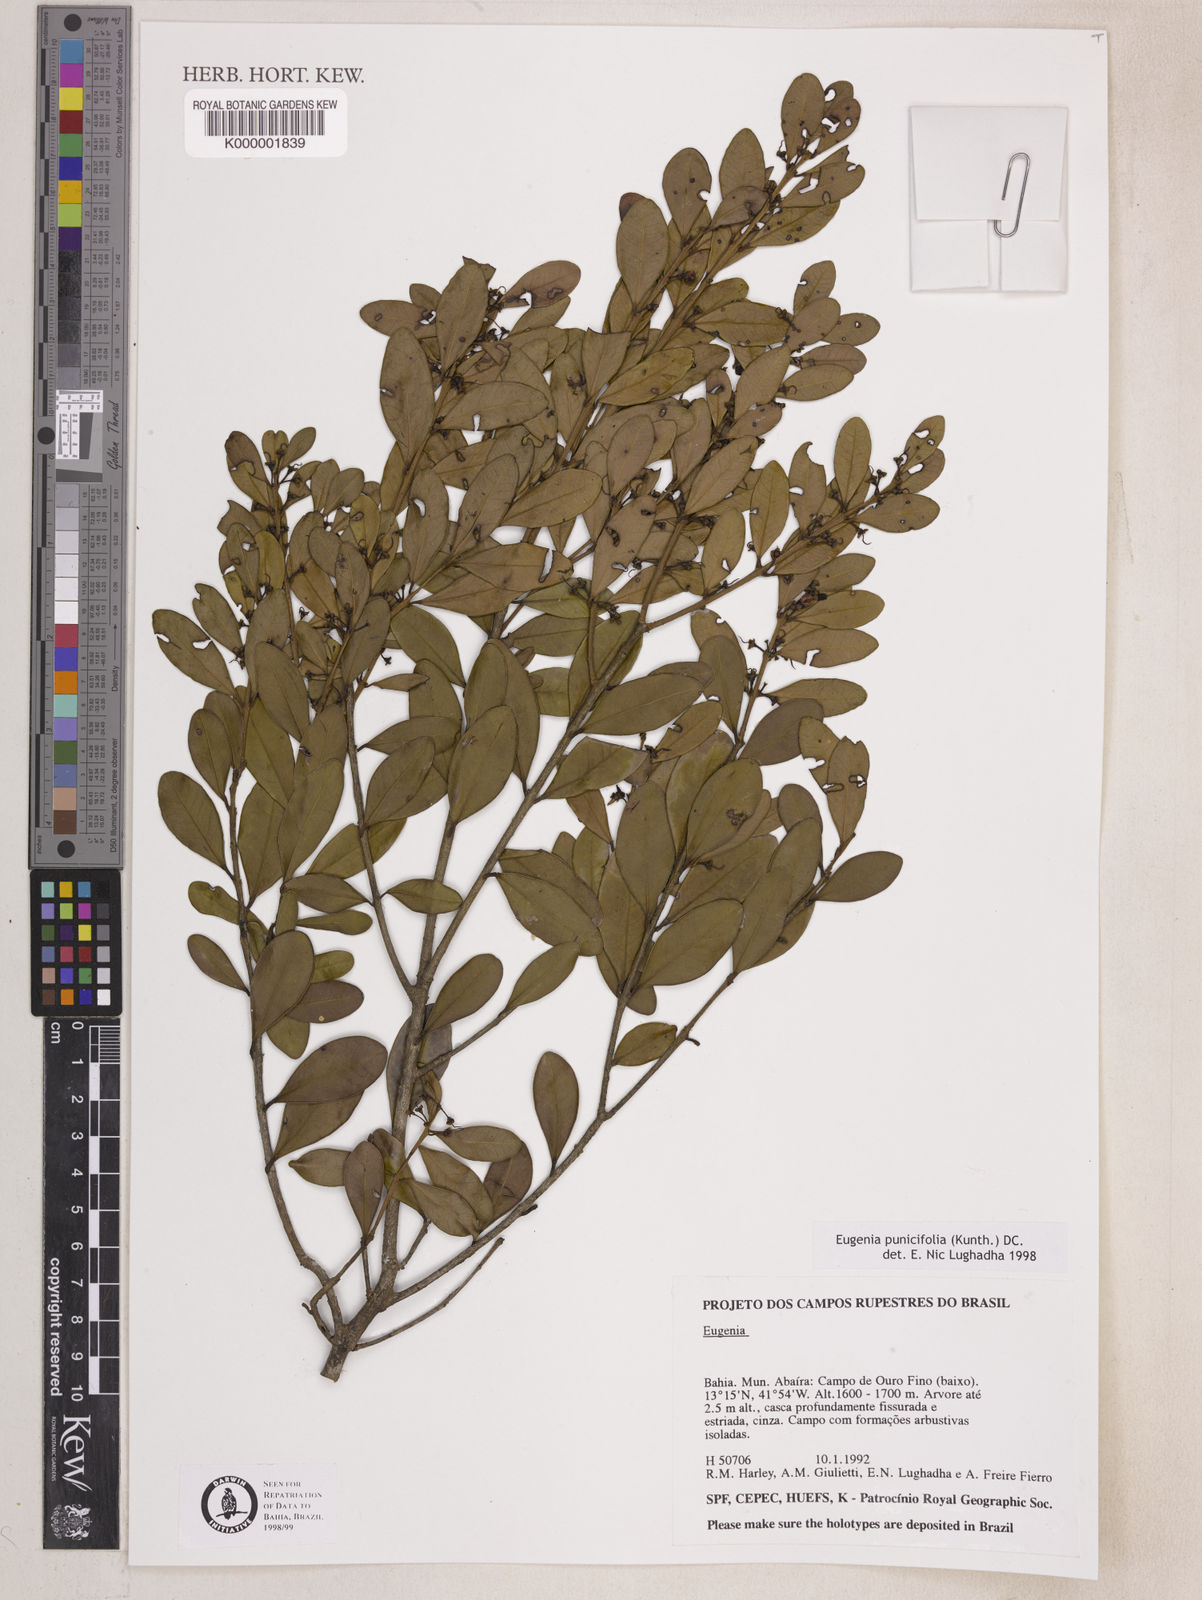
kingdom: Plantae
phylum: Tracheophyta
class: Magnoliopsida
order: Myrtales
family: Myrtaceae
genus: Eugenia
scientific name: Eugenia punicifolia
